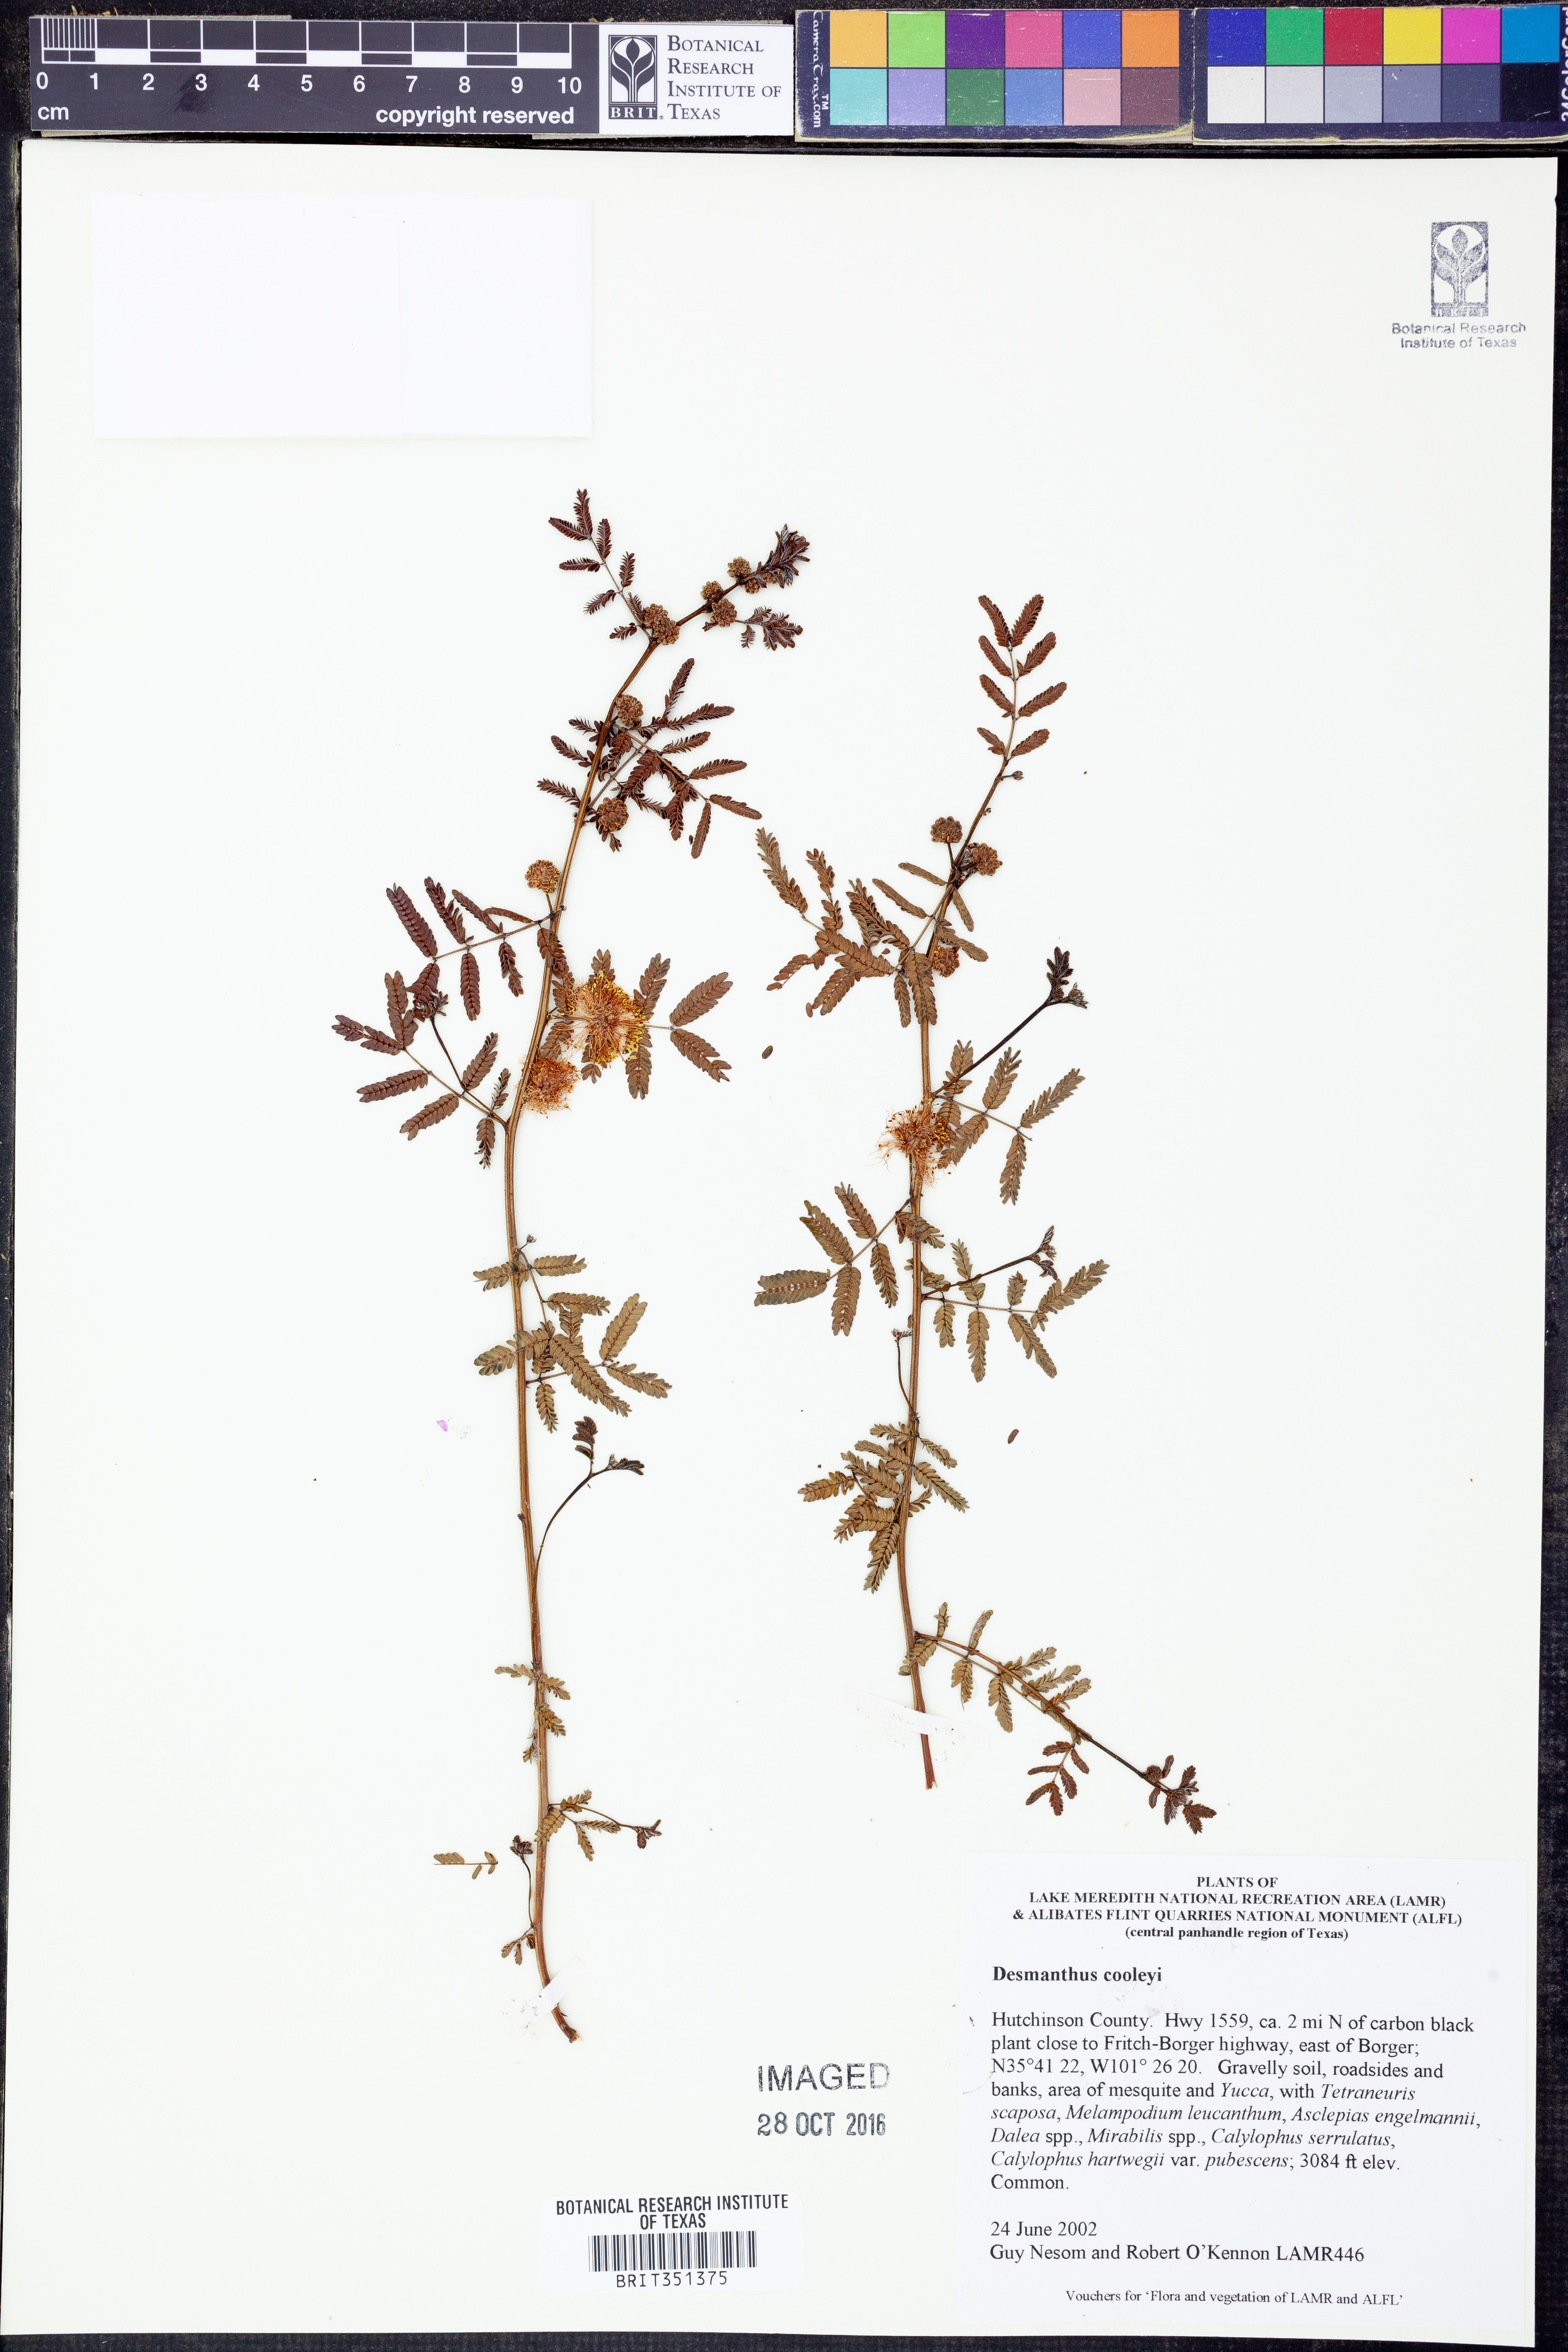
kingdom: Plantae
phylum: Tracheophyta
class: Magnoliopsida
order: Fabales
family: Fabaceae
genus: Desmanthus
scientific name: Desmanthus cooleyi
